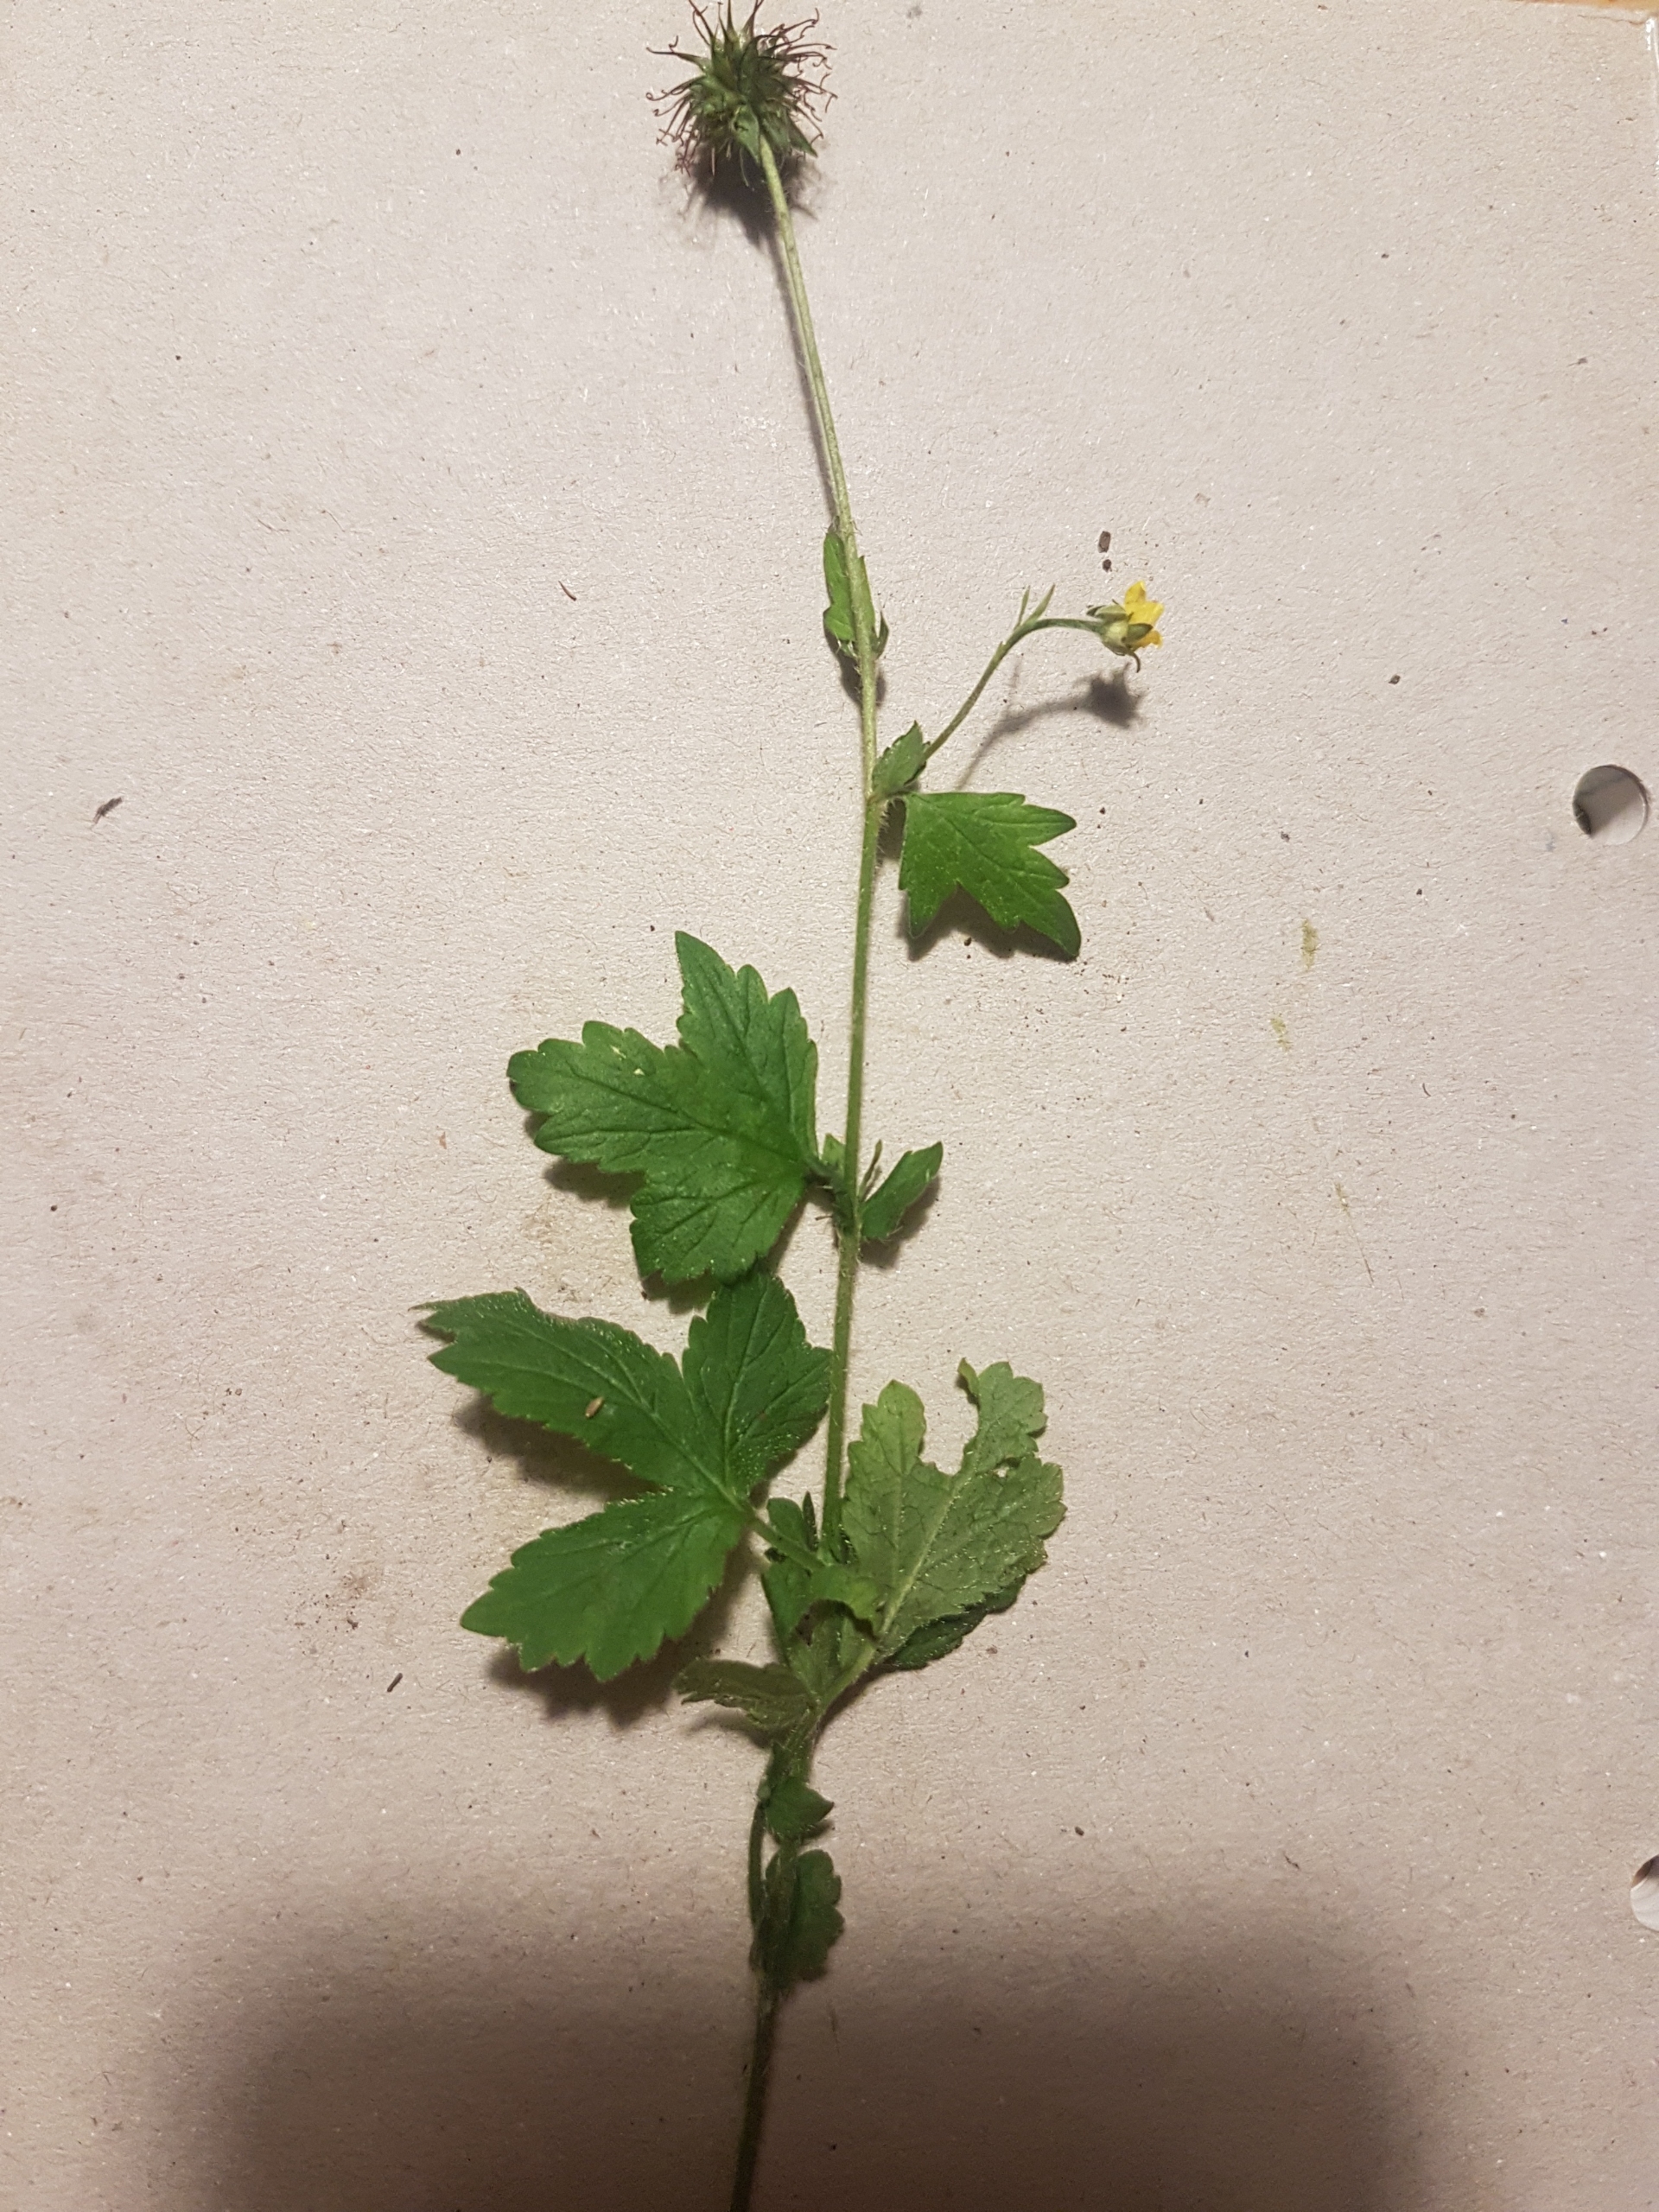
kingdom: Plantae
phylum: Tracheophyta
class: Magnoliopsida
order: Rosales
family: Rosaceae
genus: Geum
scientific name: Geum urbanum
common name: Feber-nellikerod
